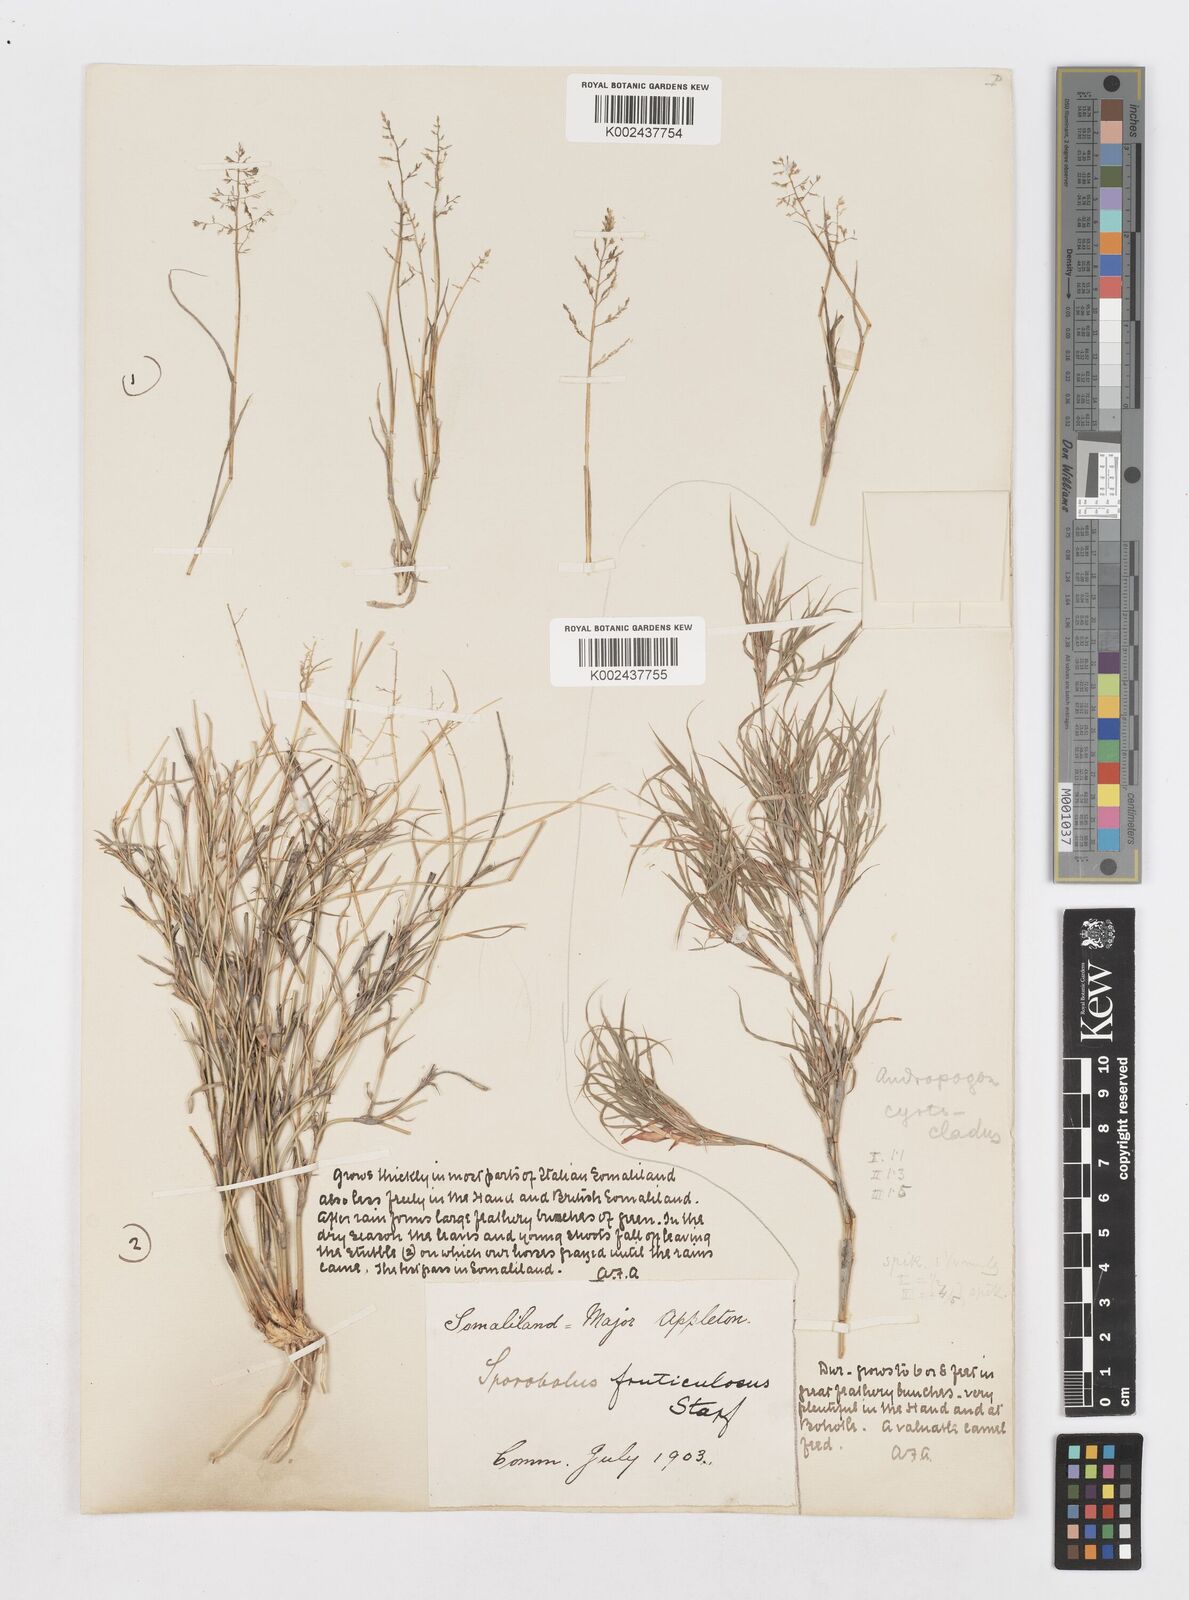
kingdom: Plantae
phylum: Tracheophyta
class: Liliopsida
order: Poales
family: Poaceae
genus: Sporobolus
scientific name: Sporobolus ruspolianus
